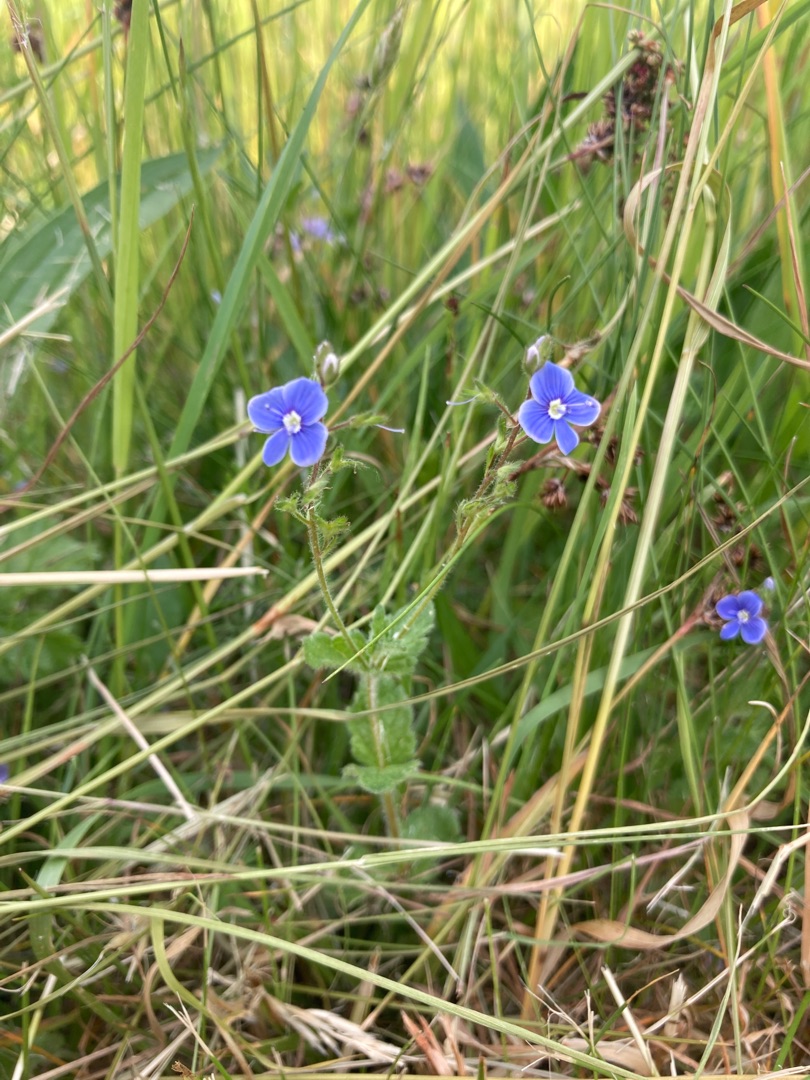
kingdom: Plantae
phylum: Tracheophyta
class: Magnoliopsida
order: Lamiales
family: Plantaginaceae
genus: Veronica
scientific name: Veronica chamaedrys
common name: Tveskægget ærenpris
